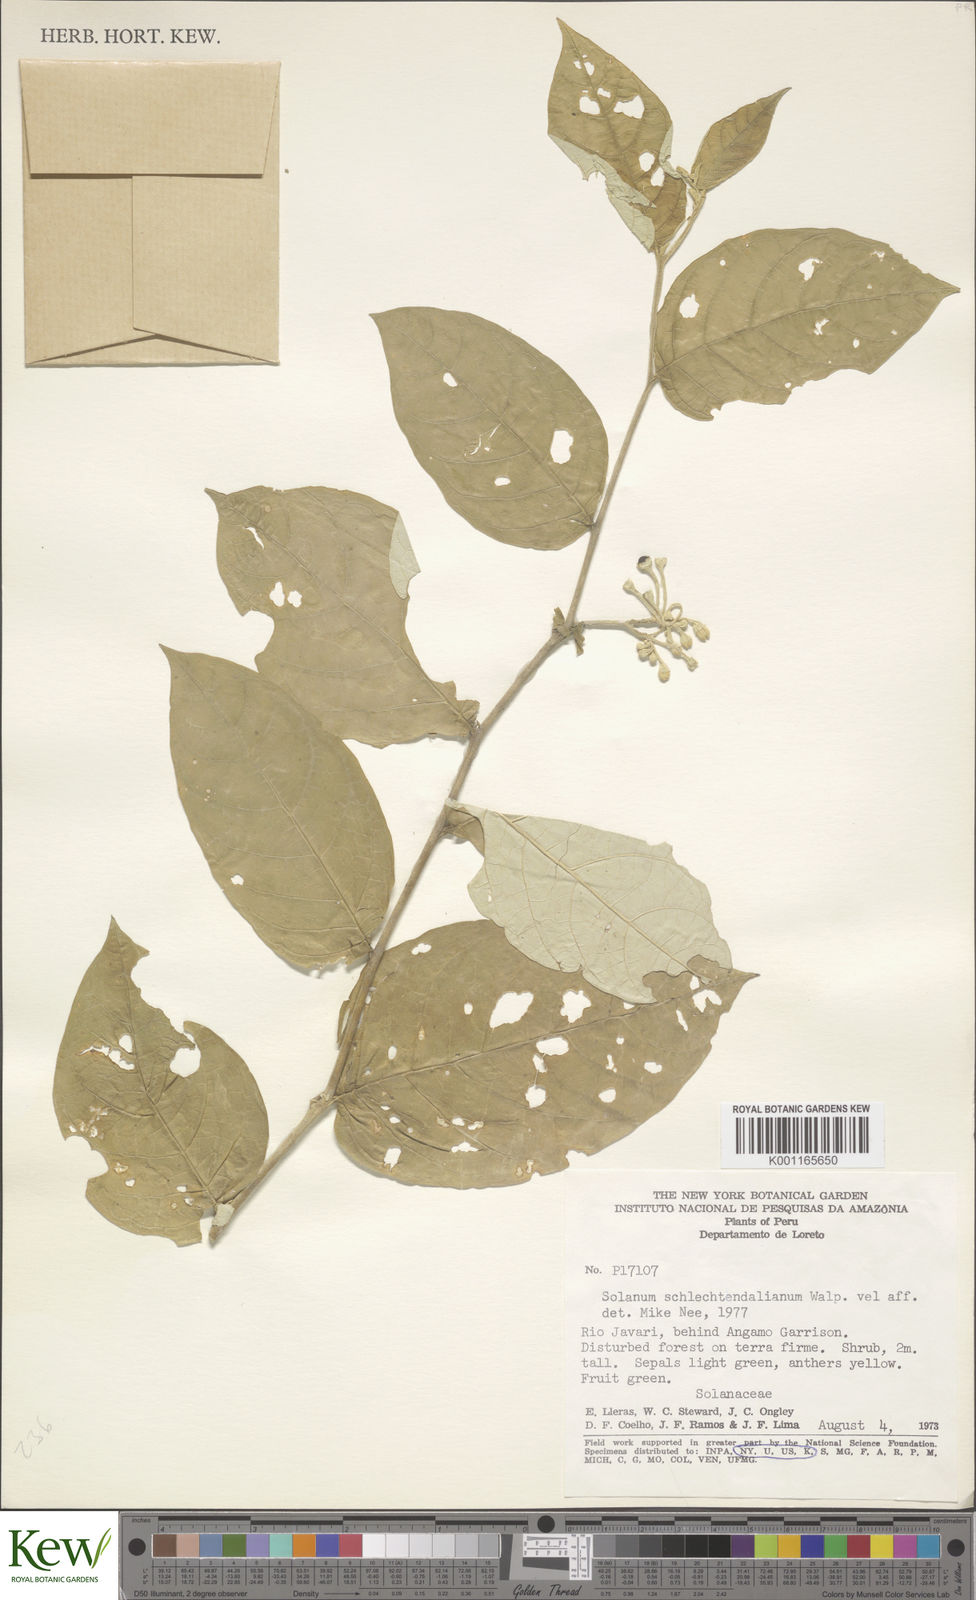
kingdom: Plantae
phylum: Tracheophyta
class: Magnoliopsida
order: Solanales
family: Solanaceae
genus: Solanum
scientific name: Solanum schlechtendalianum
